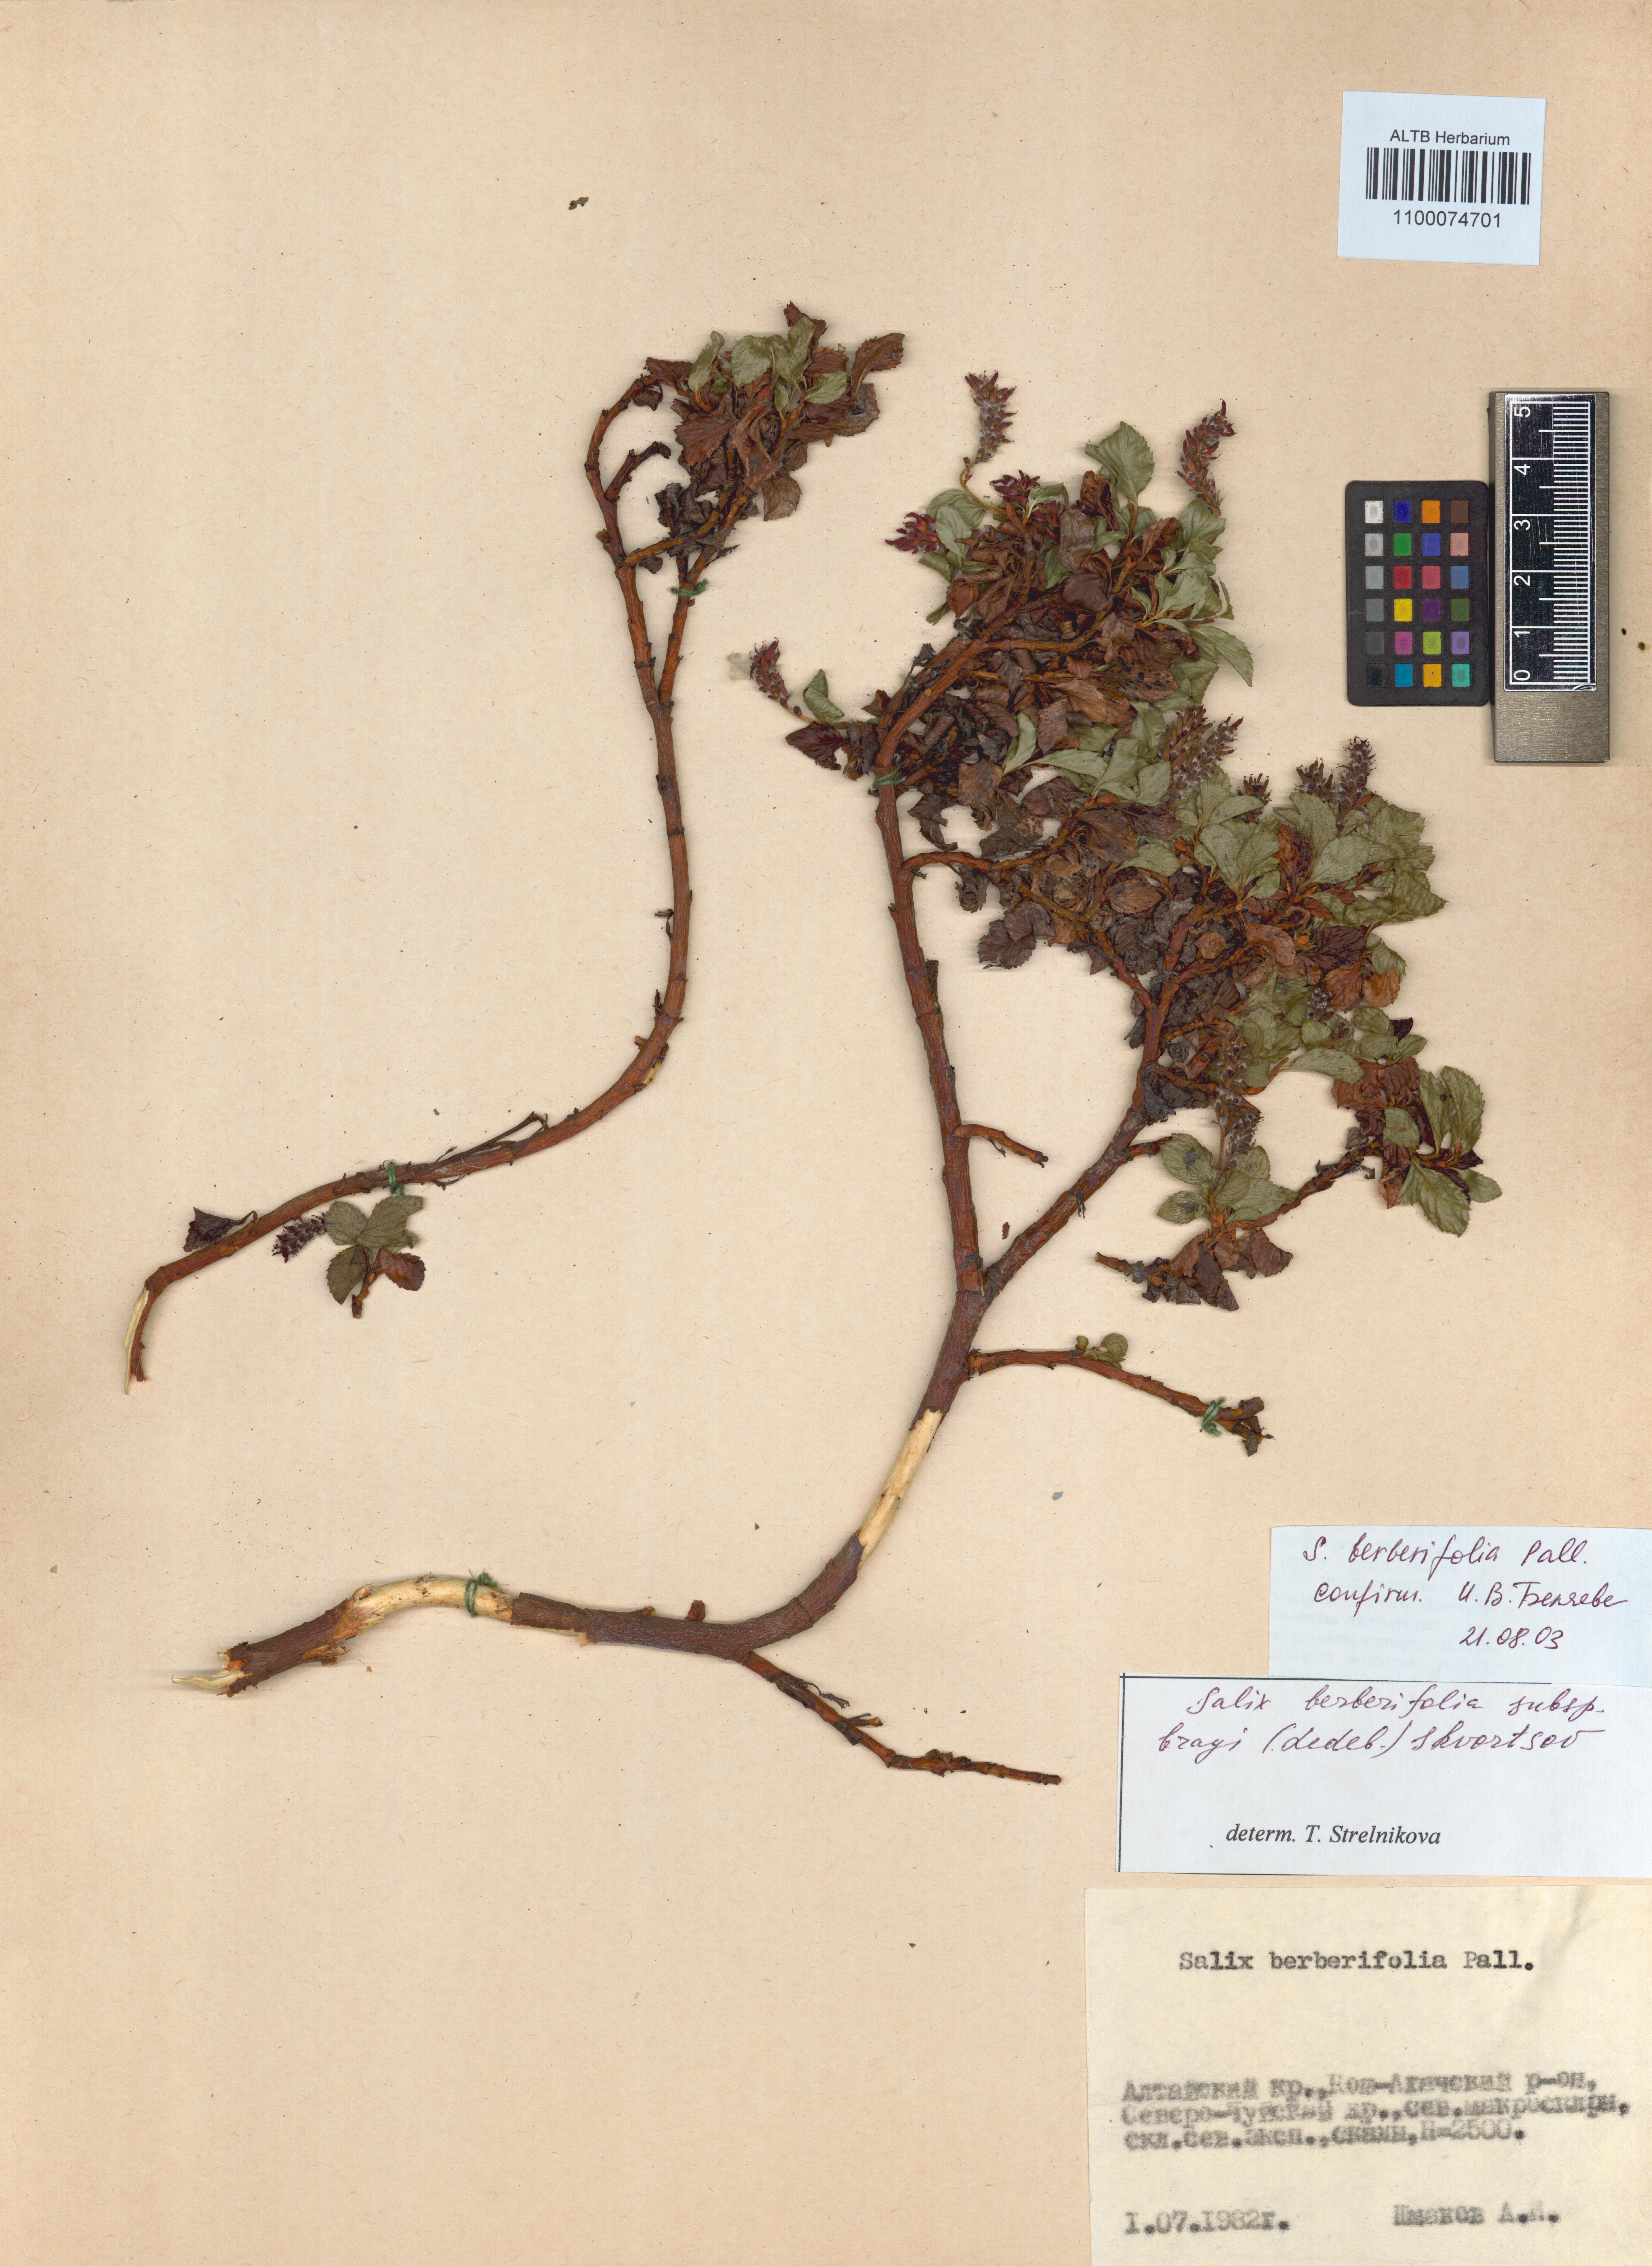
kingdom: Plantae
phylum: Tracheophyta
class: Magnoliopsida
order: Malpighiales
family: Salicaceae
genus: Salix
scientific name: Salix berberifolia
